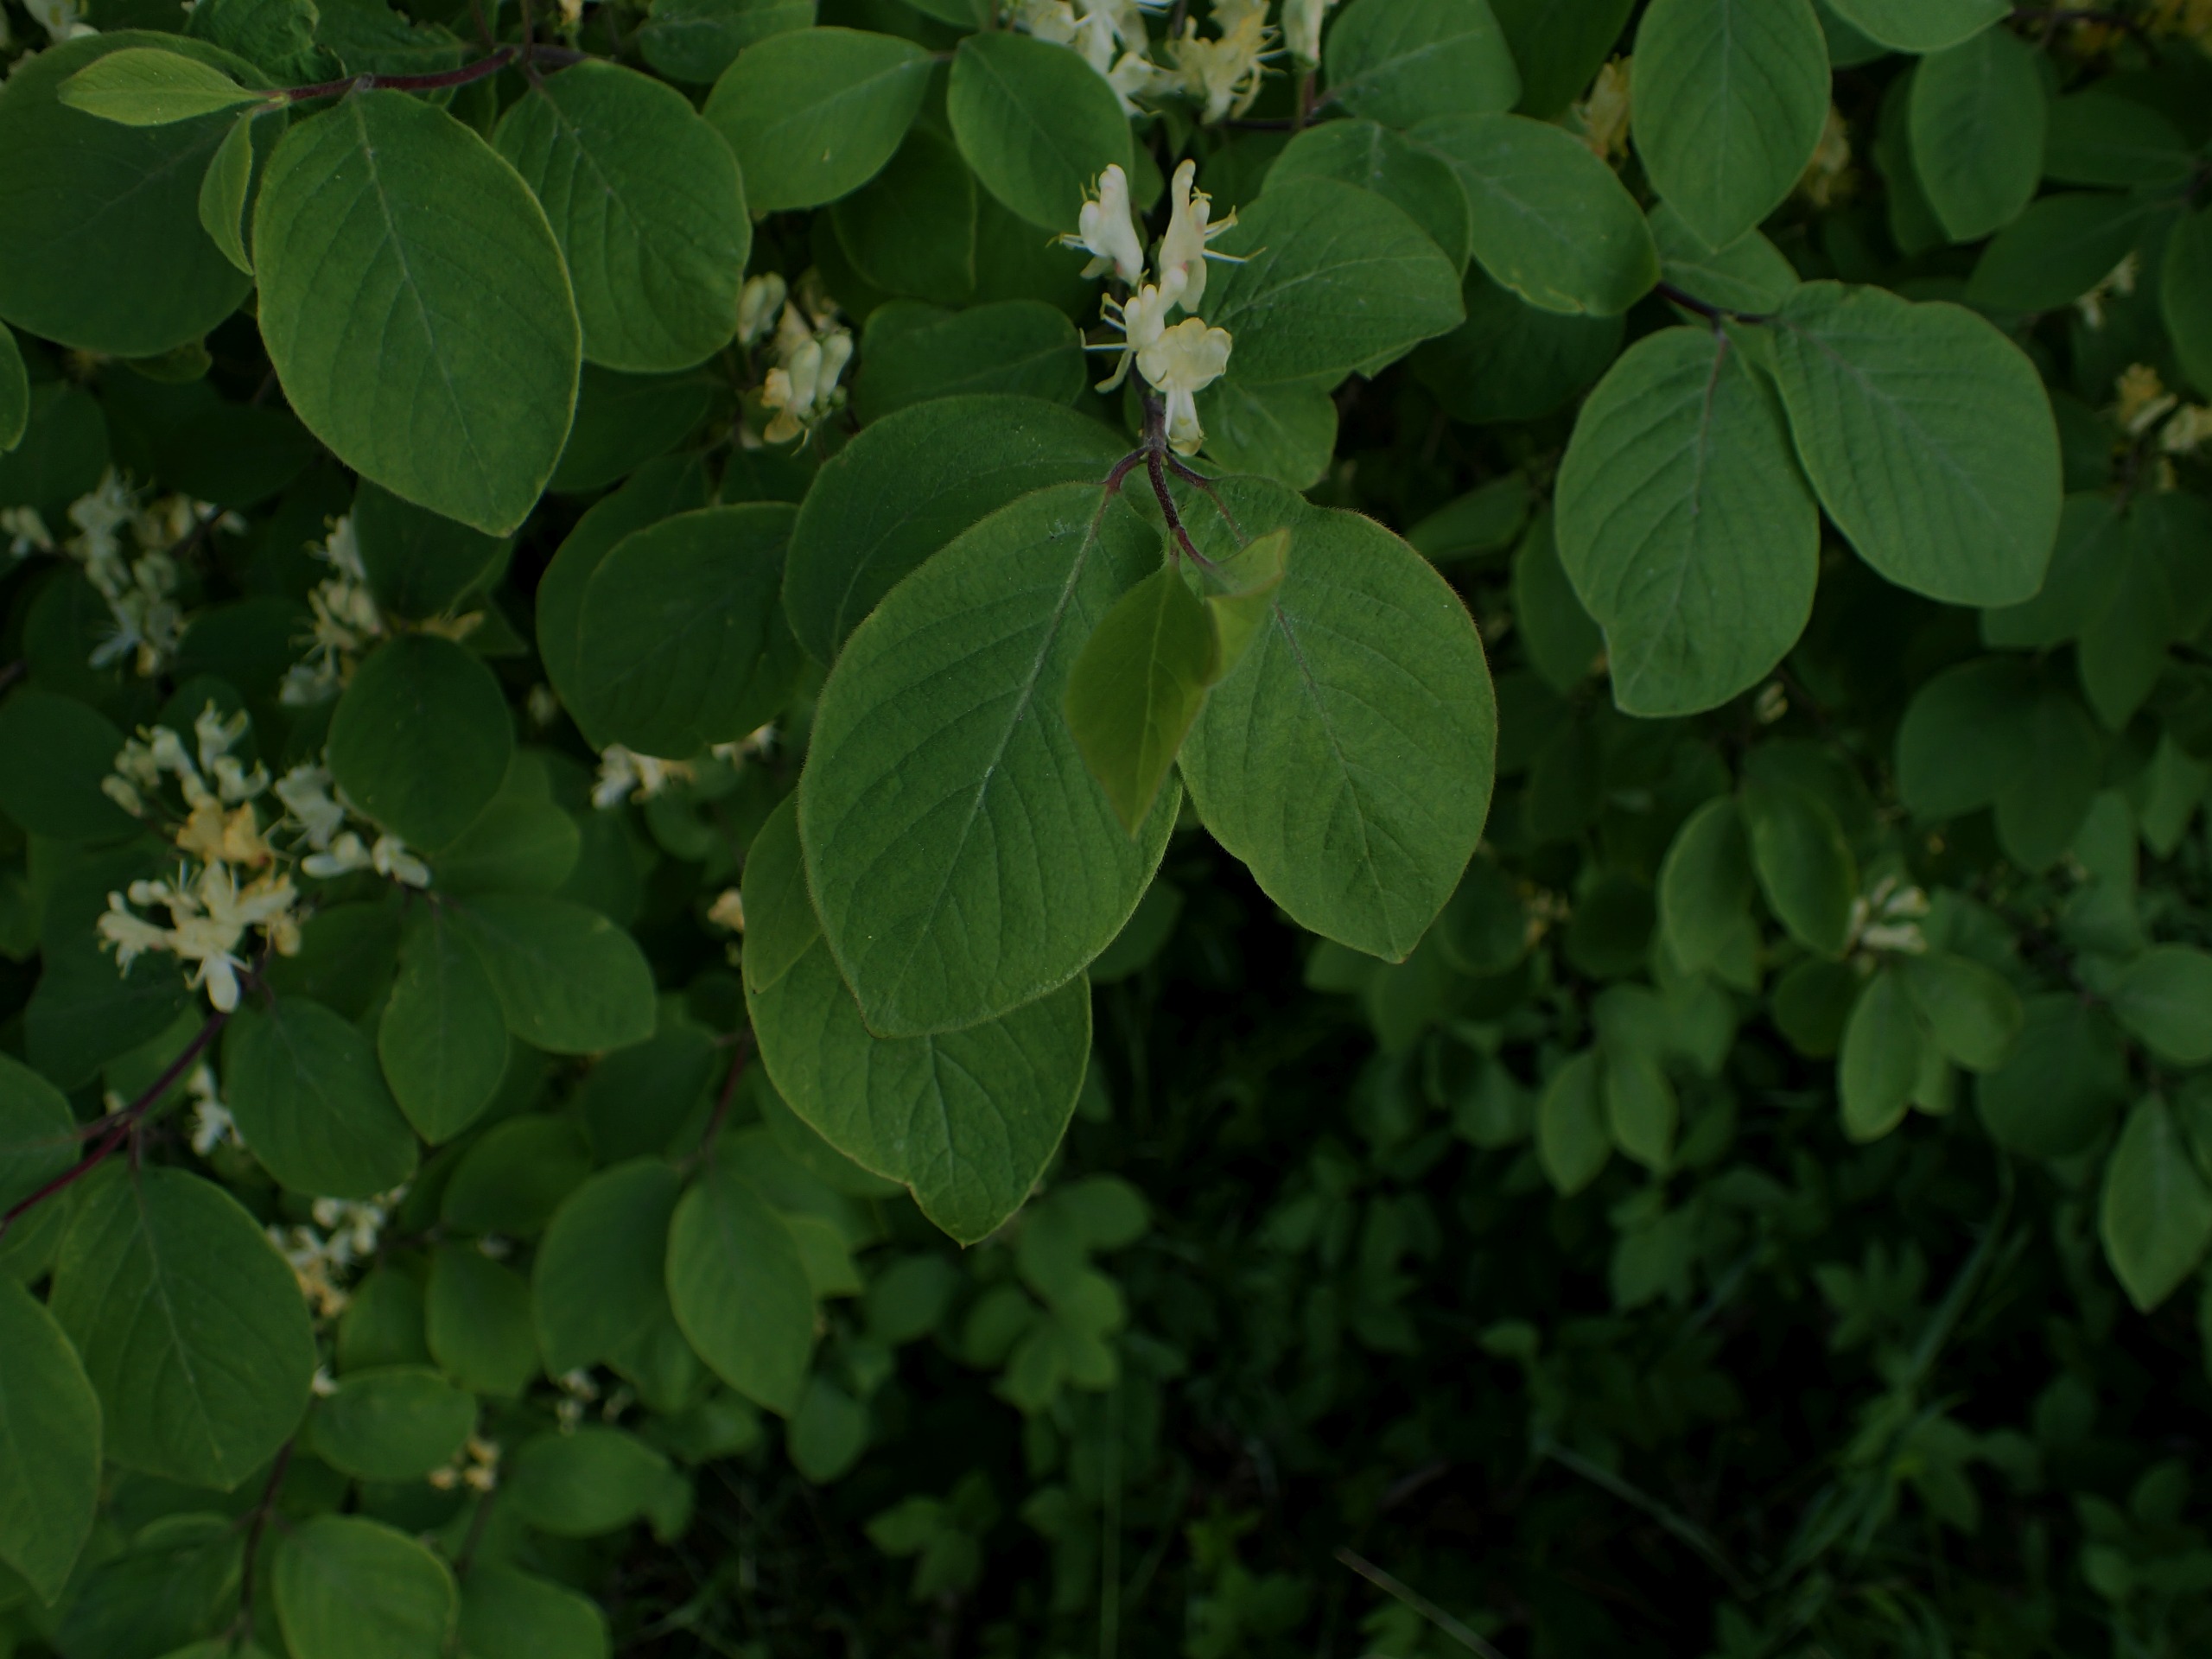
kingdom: Plantae
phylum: Tracheophyta
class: Magnoliopsida
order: Dipsacales
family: Caprifoliaceae
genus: Lonicera
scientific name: Lonicera xylosteum
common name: Dunet gedeblad
